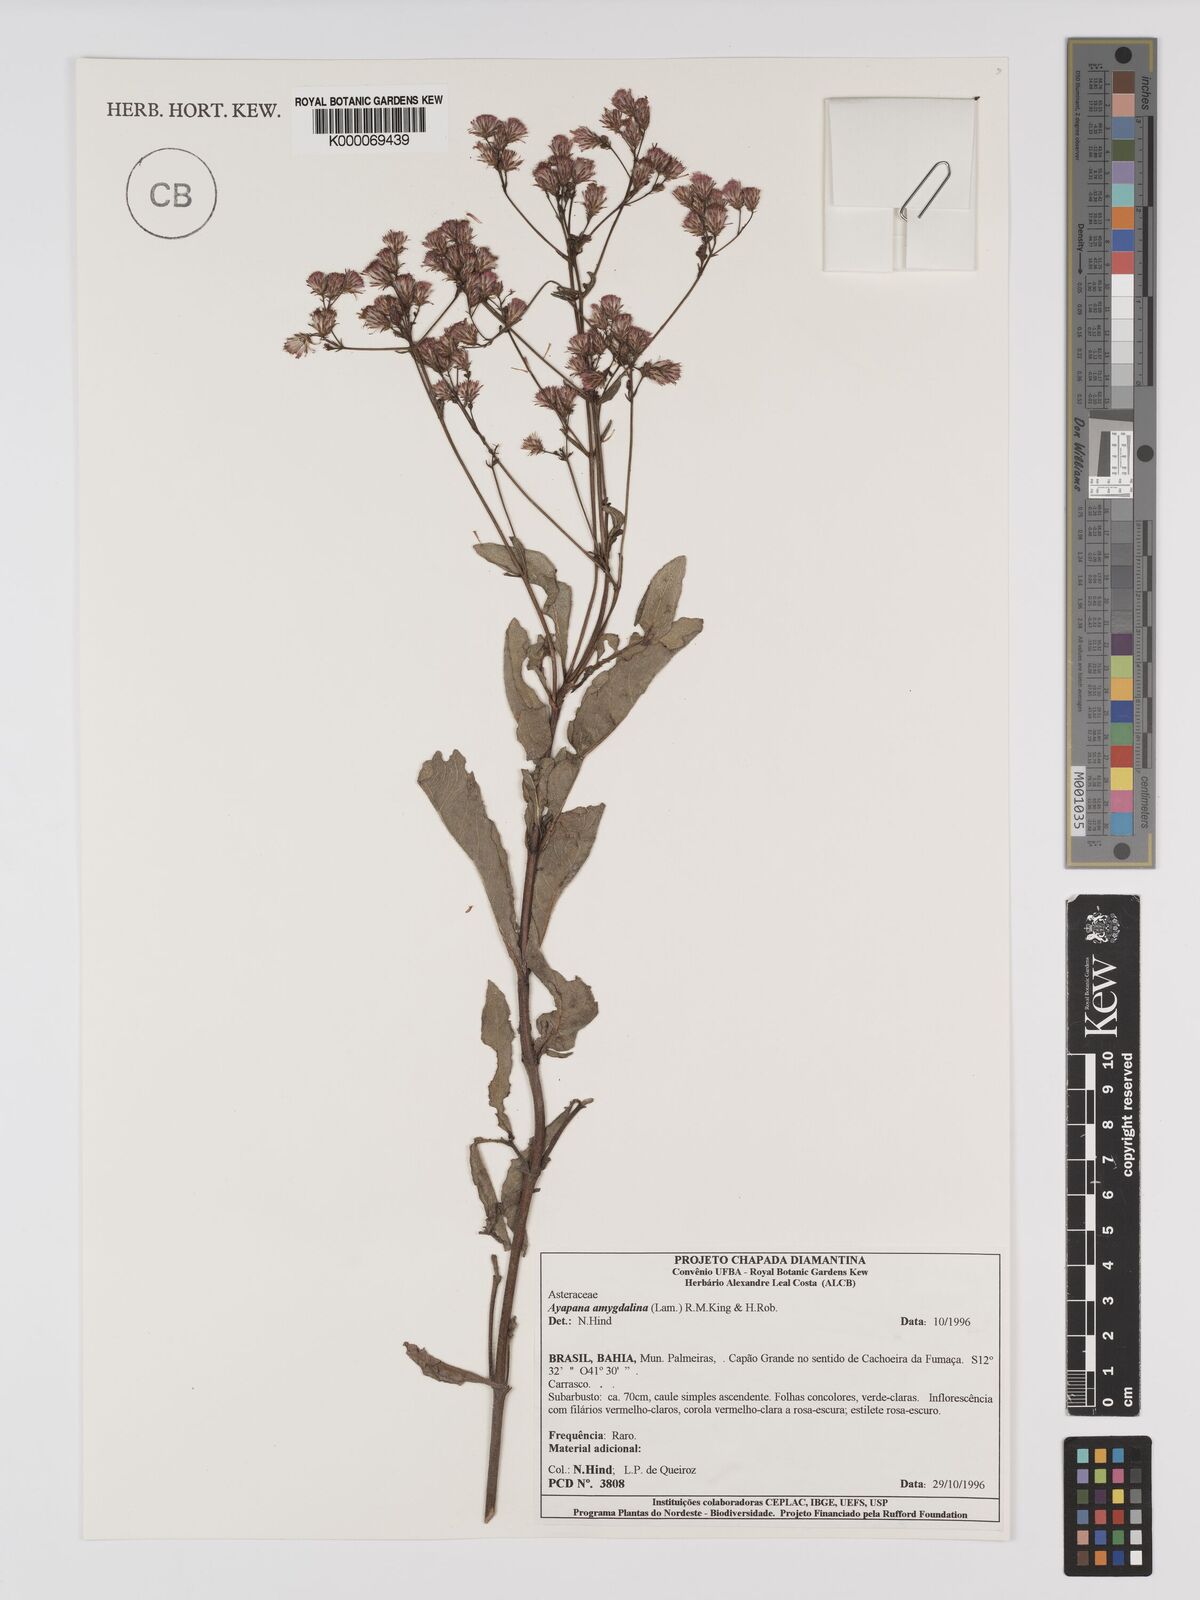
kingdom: Plantae
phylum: Tracheophyta
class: Magnoliopsida
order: Asterales
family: Asteraceae
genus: Ayapana
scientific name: Ayapana amygdalina
